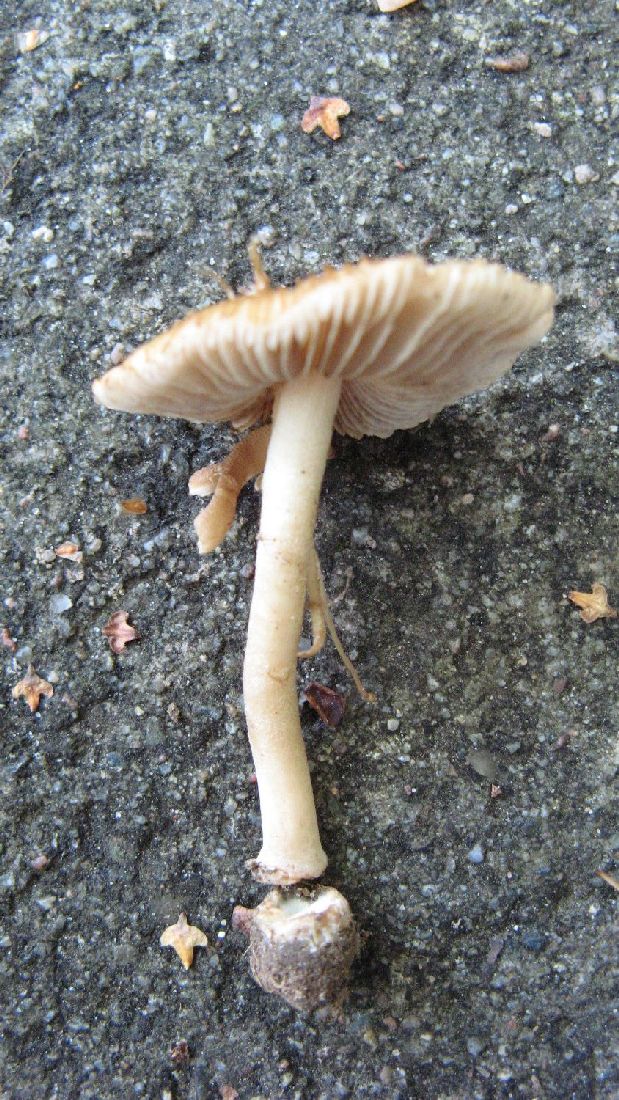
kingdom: Fungi
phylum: Basidiomycota
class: Agaricomycetes
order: Agaricales
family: Inocybaceae
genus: Inocybe
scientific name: Inocybe mixtilis
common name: randknoldet trævlhat
